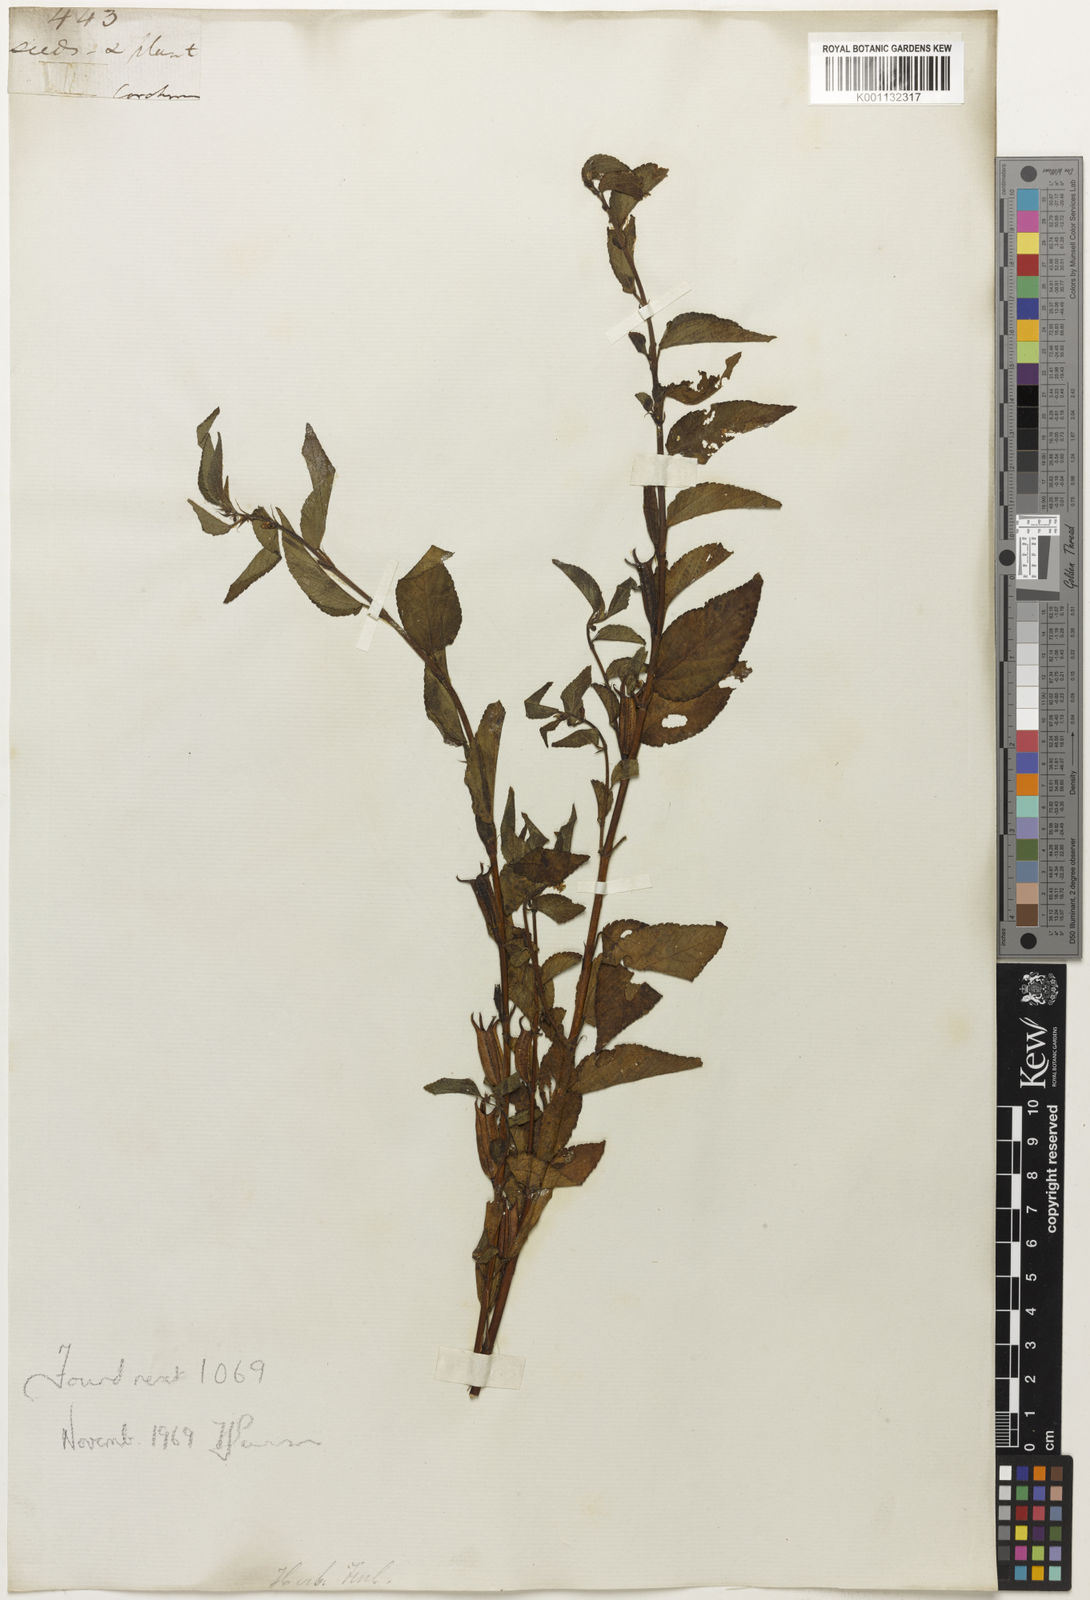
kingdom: Plantae
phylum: Tracheophyta
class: Magnoliopsida
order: Malvales
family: Malvaceae
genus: Corchorus
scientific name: Corchorus
